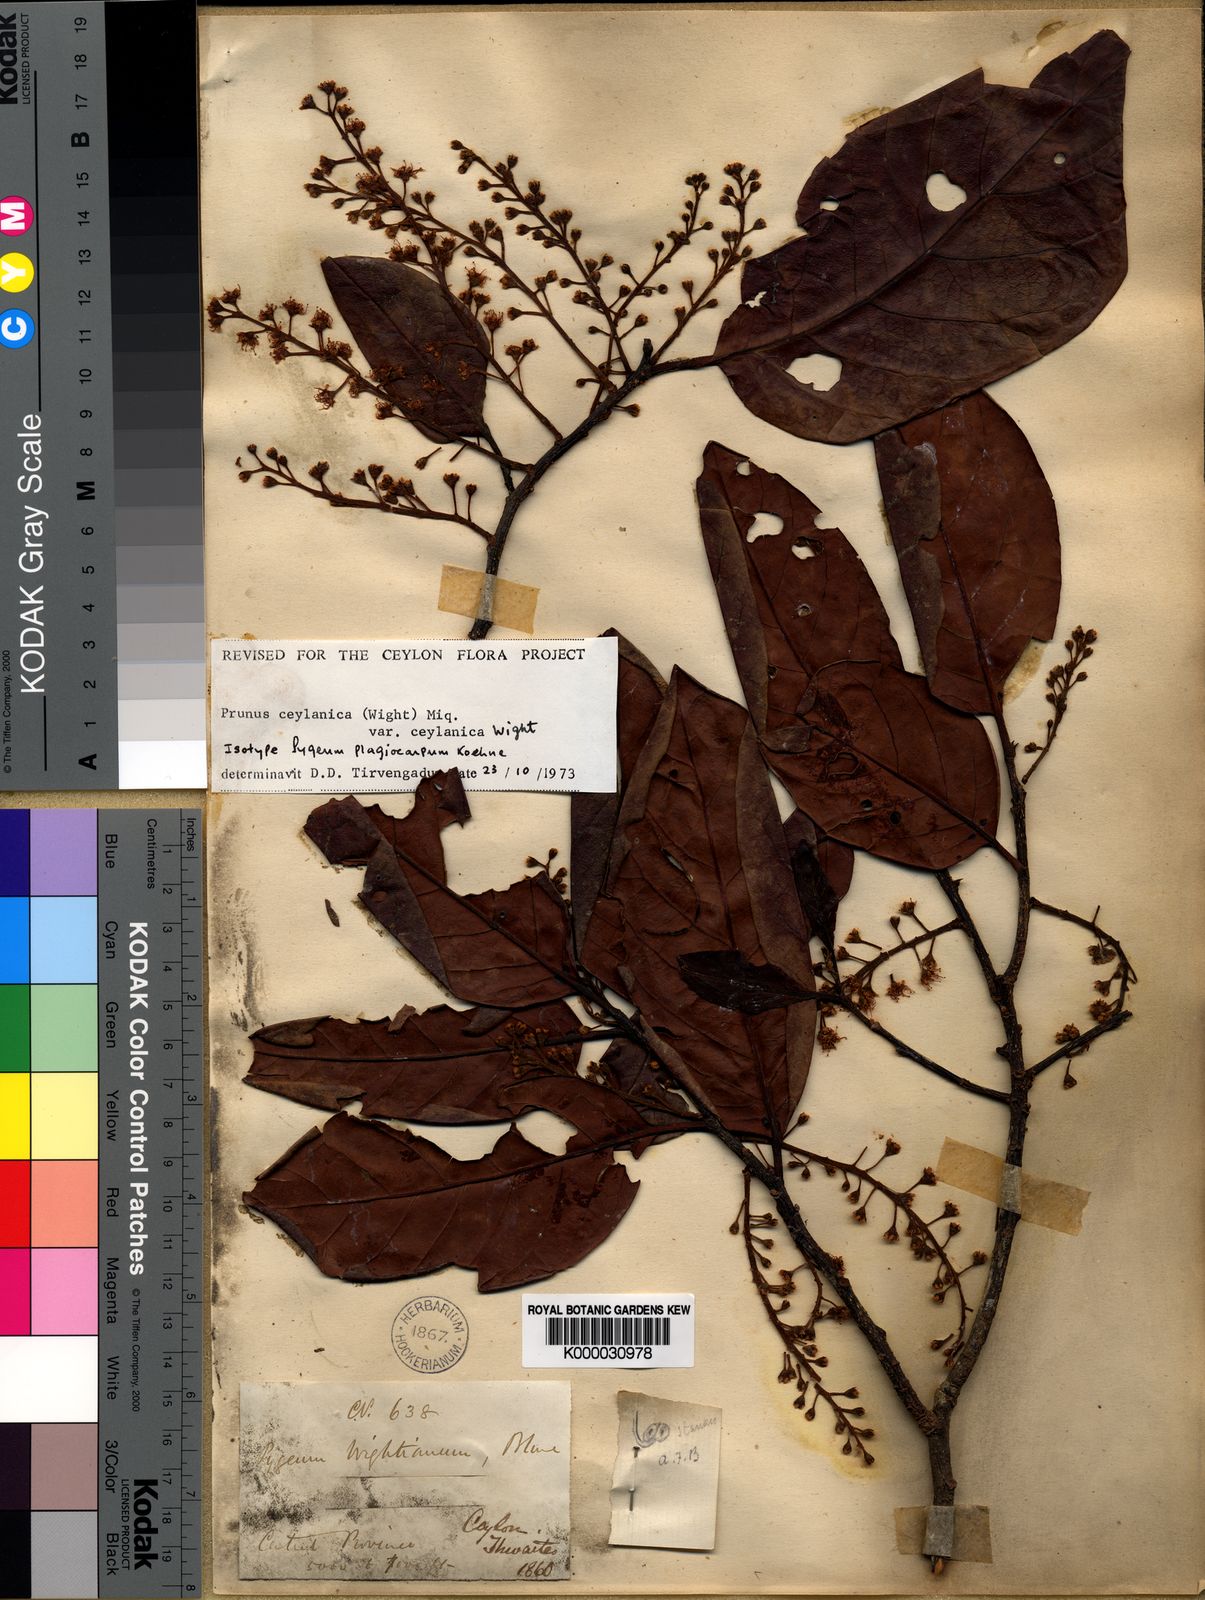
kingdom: Plantae
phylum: Tracheophyta
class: Magnoliopsida
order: Rosales
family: Rosaceae
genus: Prunus
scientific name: Prunus ceylanica
